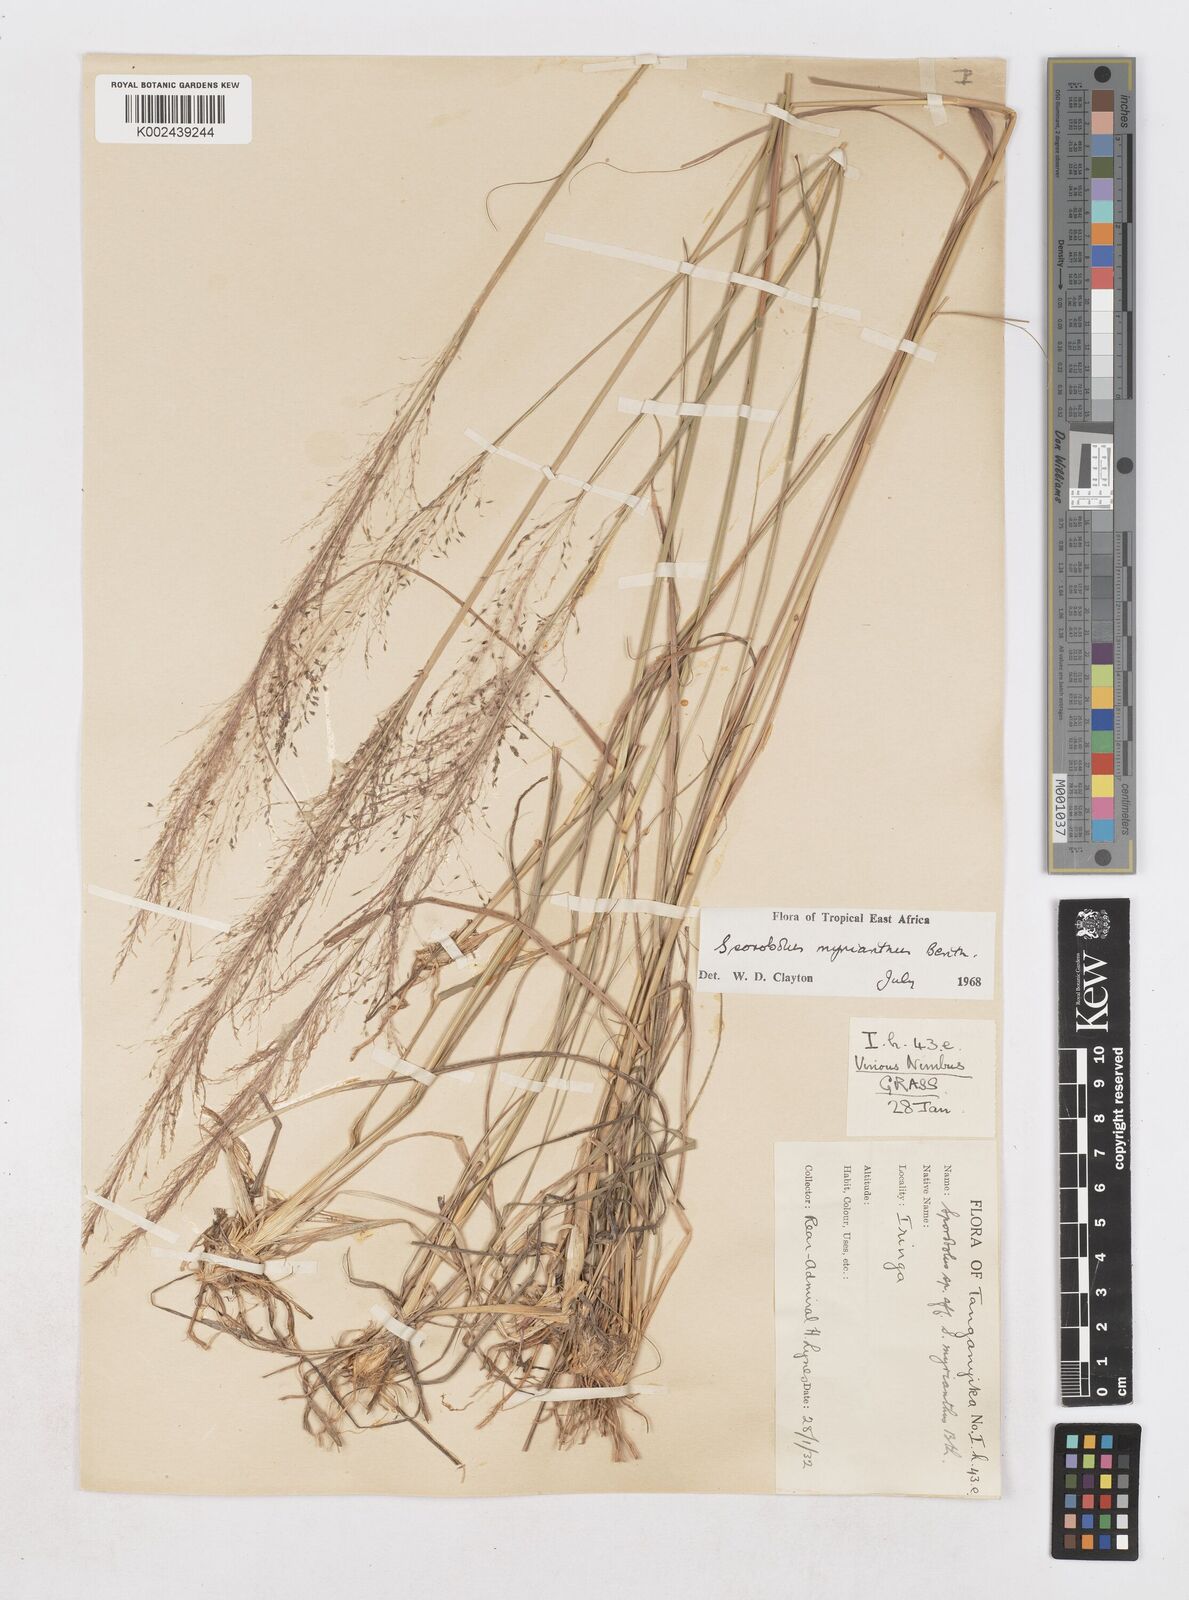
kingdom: Plantae
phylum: Tracheophyta
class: Liliopsida
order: Poales
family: Poaceae
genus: Sporobolus
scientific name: Sporobolus myrianthus
